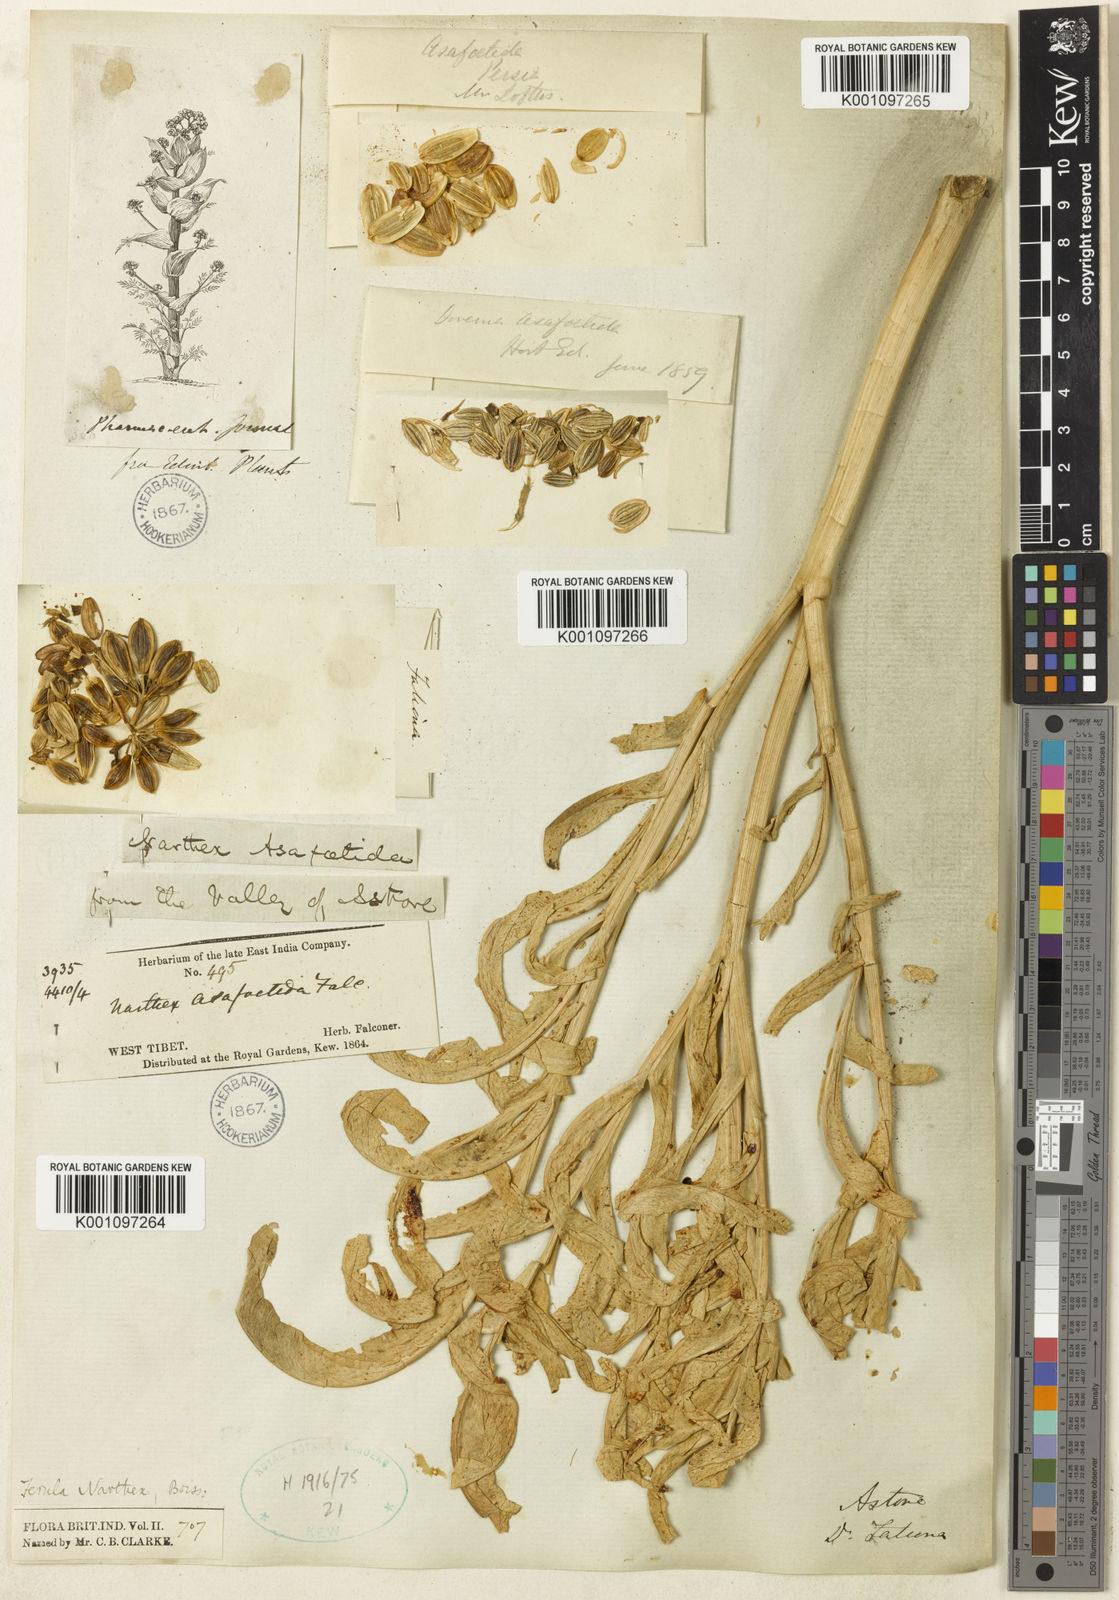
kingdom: Plantae
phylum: Tracheophyta
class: Magnoliopsida
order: Apiales
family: Apiaceae
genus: Ferula
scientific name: Ferula narthex
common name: Hing asafetida
